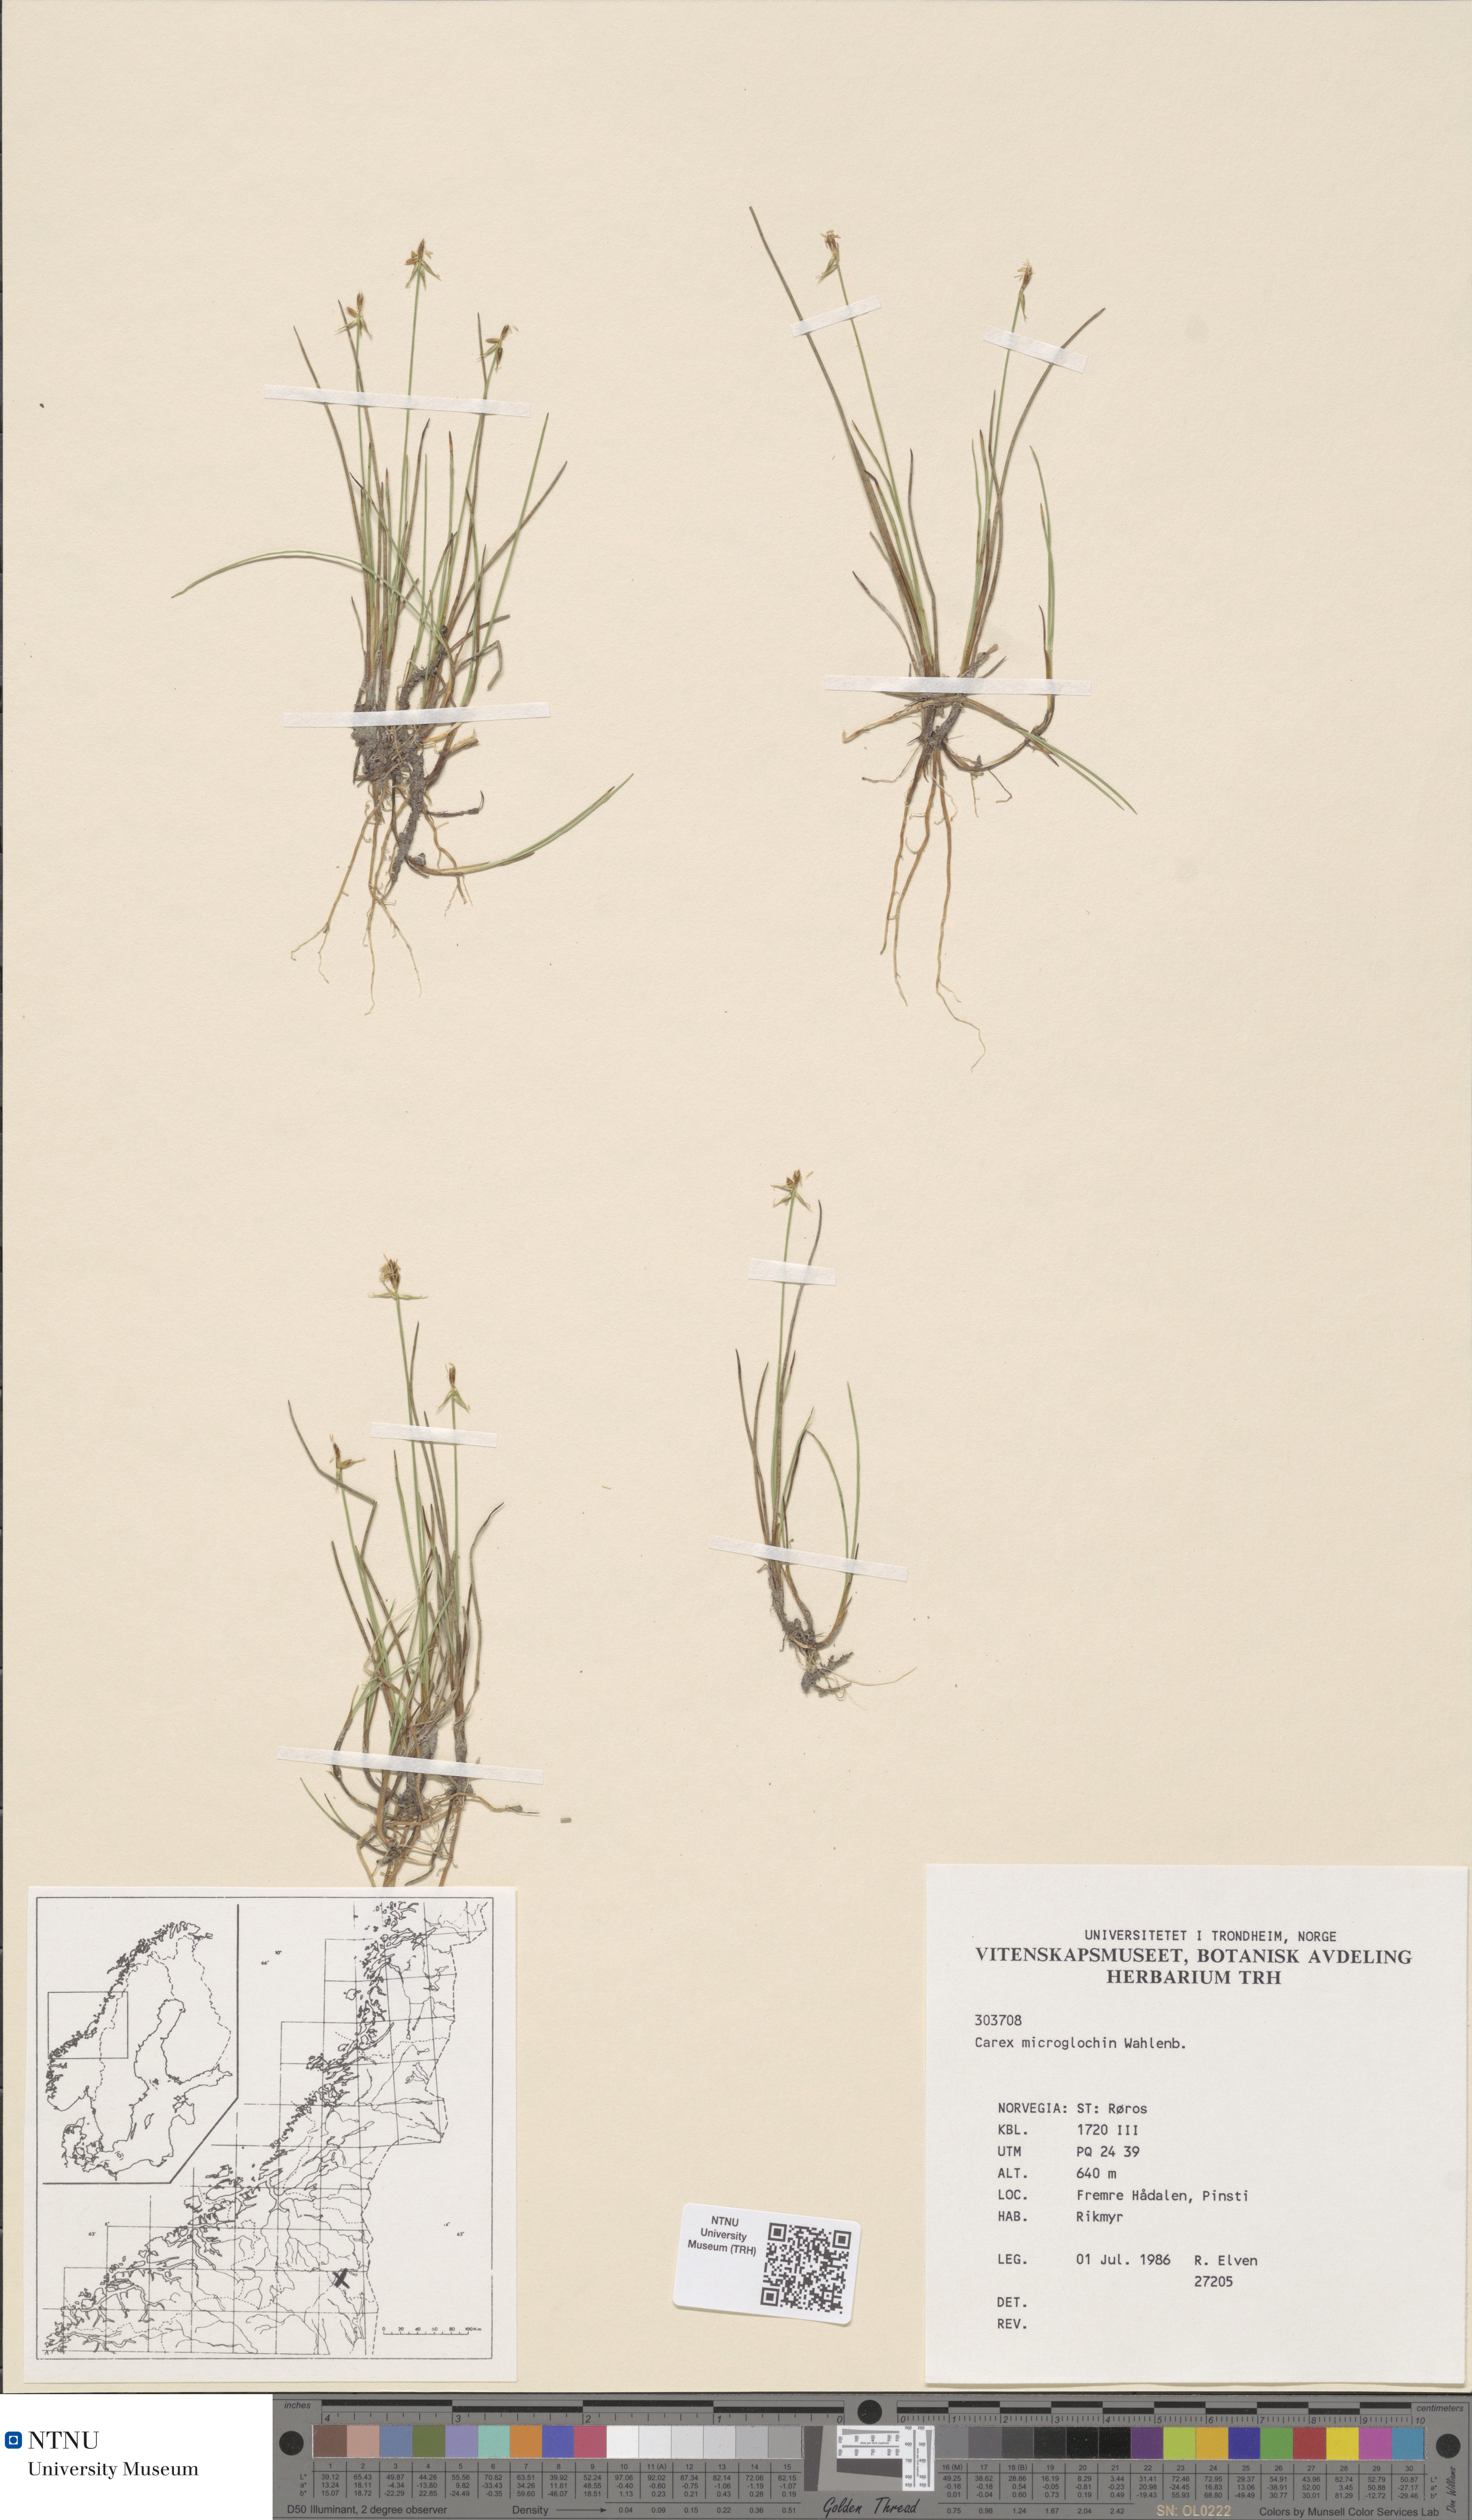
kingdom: Plantae
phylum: Tracheophyta
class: Liliopsida
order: Poales
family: Cyperaceae
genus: Carex
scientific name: Carex microglochin
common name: Bristle sedge
